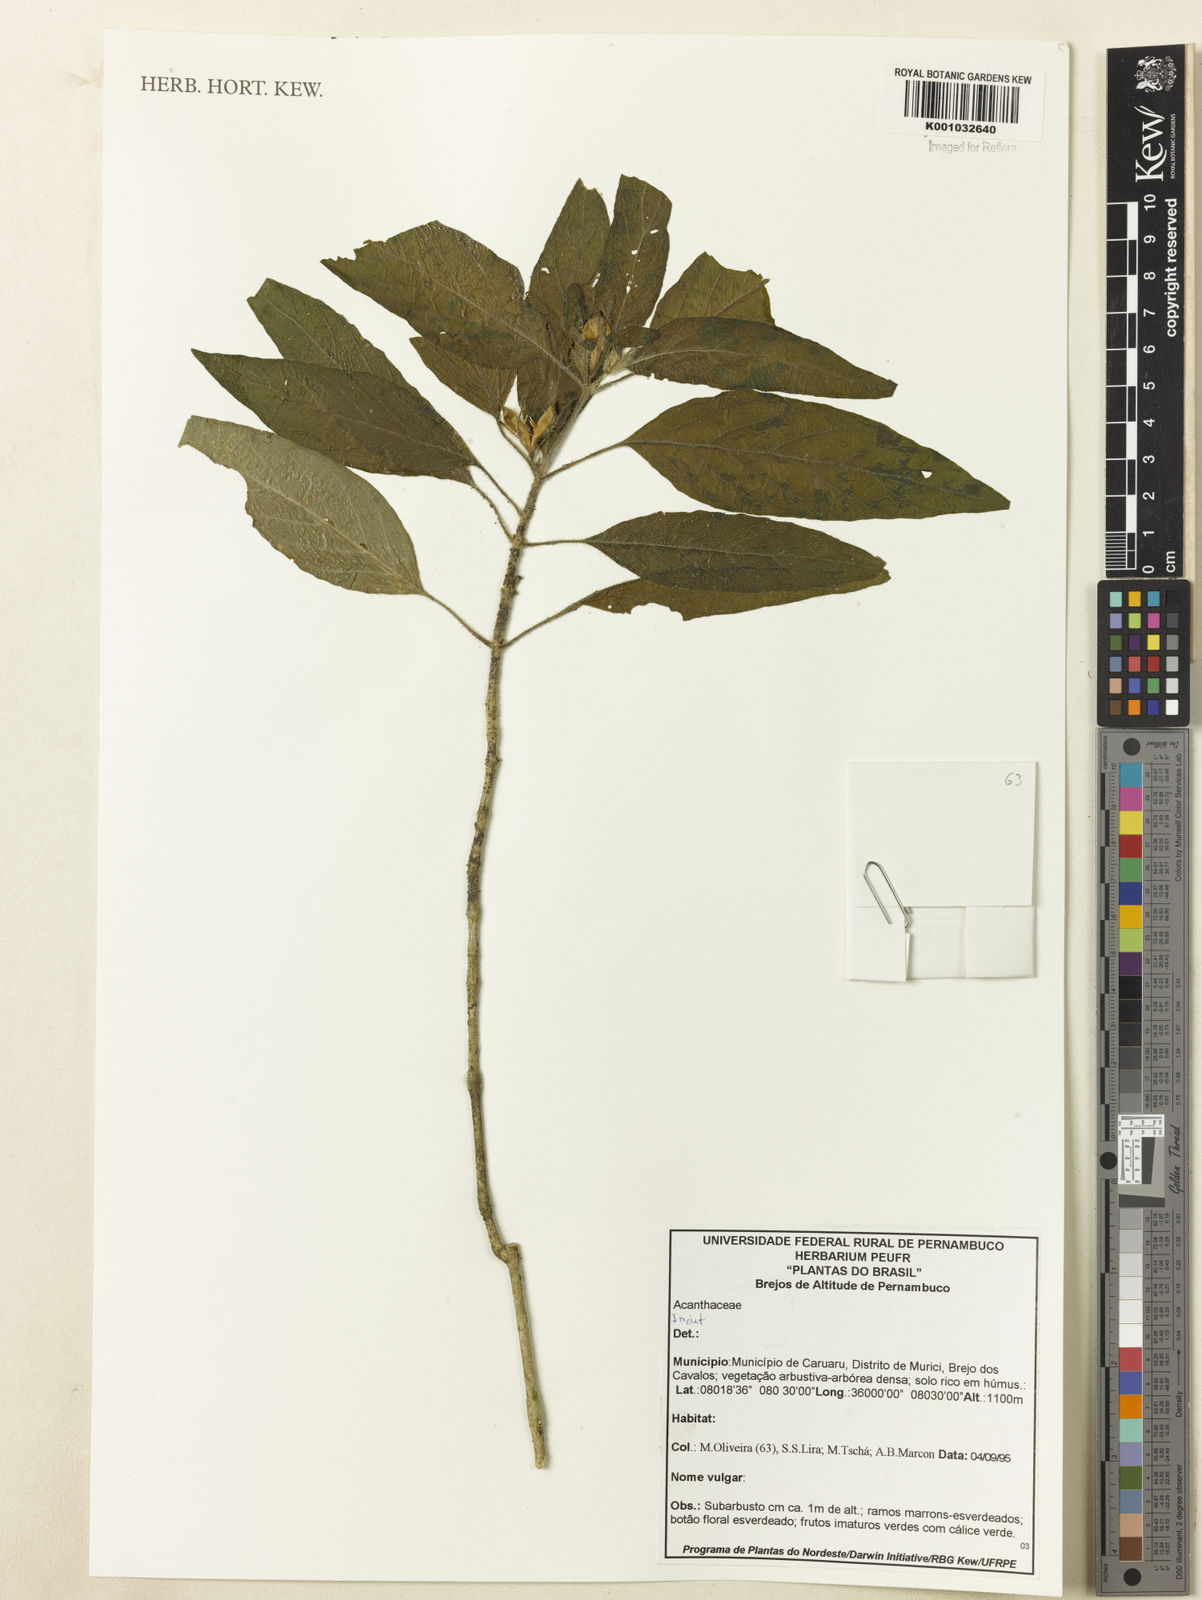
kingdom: Plantae
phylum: Tracheophyta
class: Magnoliopsida
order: Lamiales
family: Acanthaceae
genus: Ruellia
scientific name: Ruellia
